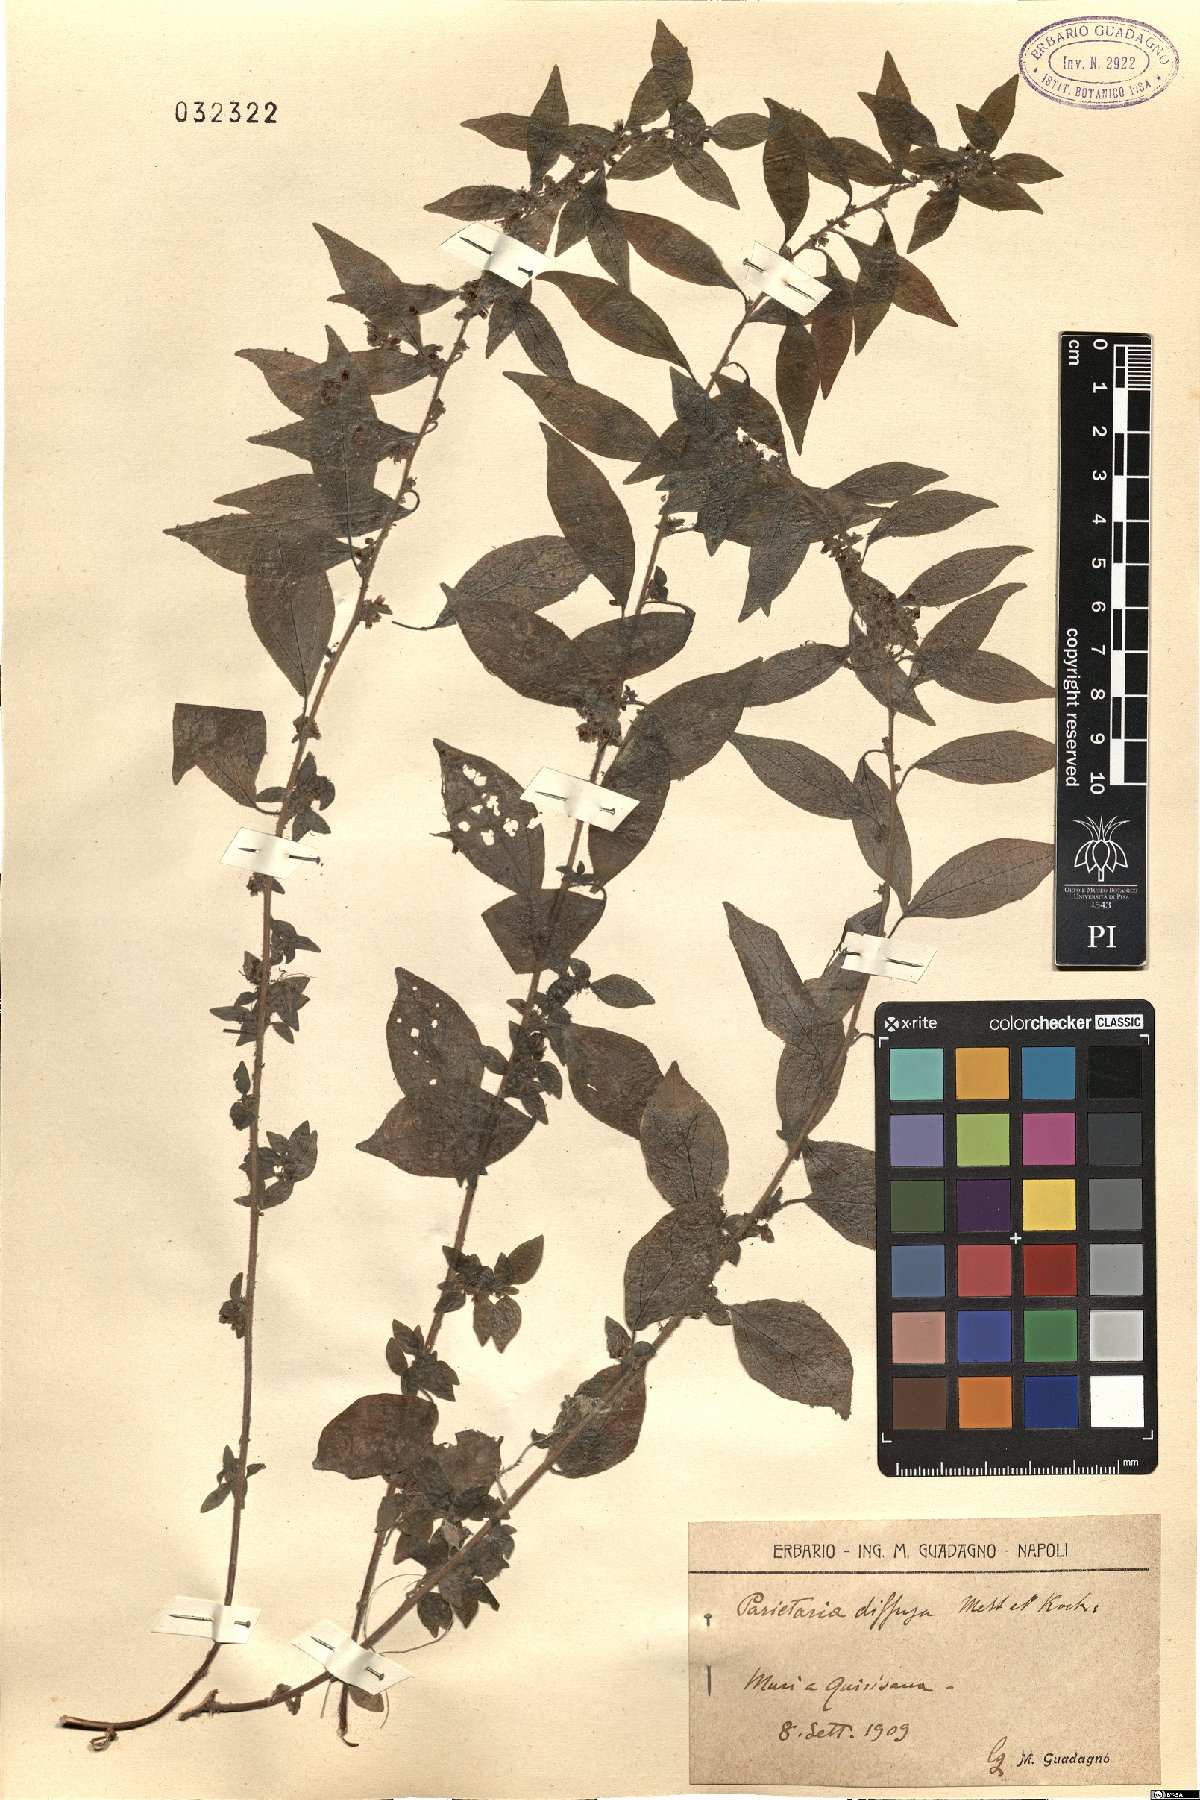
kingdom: Plantae
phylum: Tracheophyta
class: Magnoliopsida
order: Rosales
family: Urticaceae
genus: Parietaria
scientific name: Parietaria judaica
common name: Pellitory-of-the-wall
